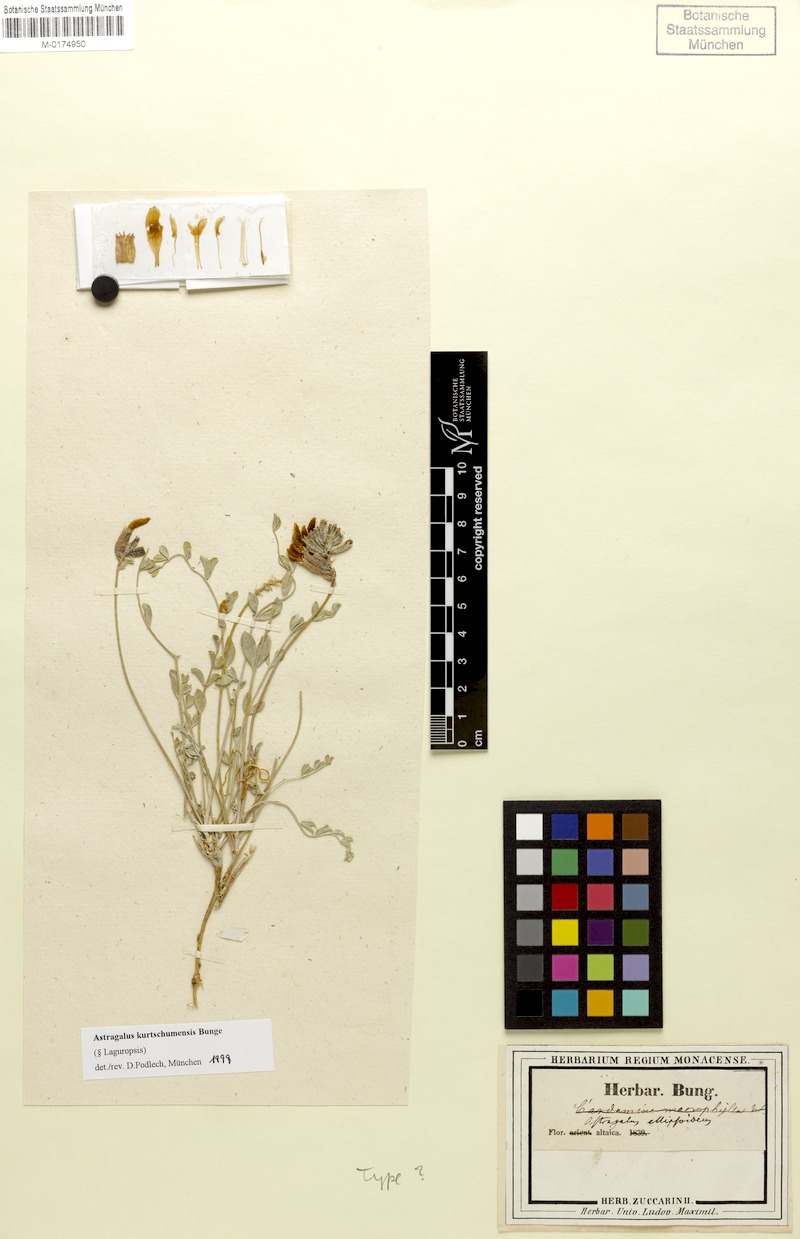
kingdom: Plantae
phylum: Tracheophyta
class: Magnoliopsida
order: Fabales
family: Fabaceae
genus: Astragalus
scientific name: Astragalus kurtschumensis
